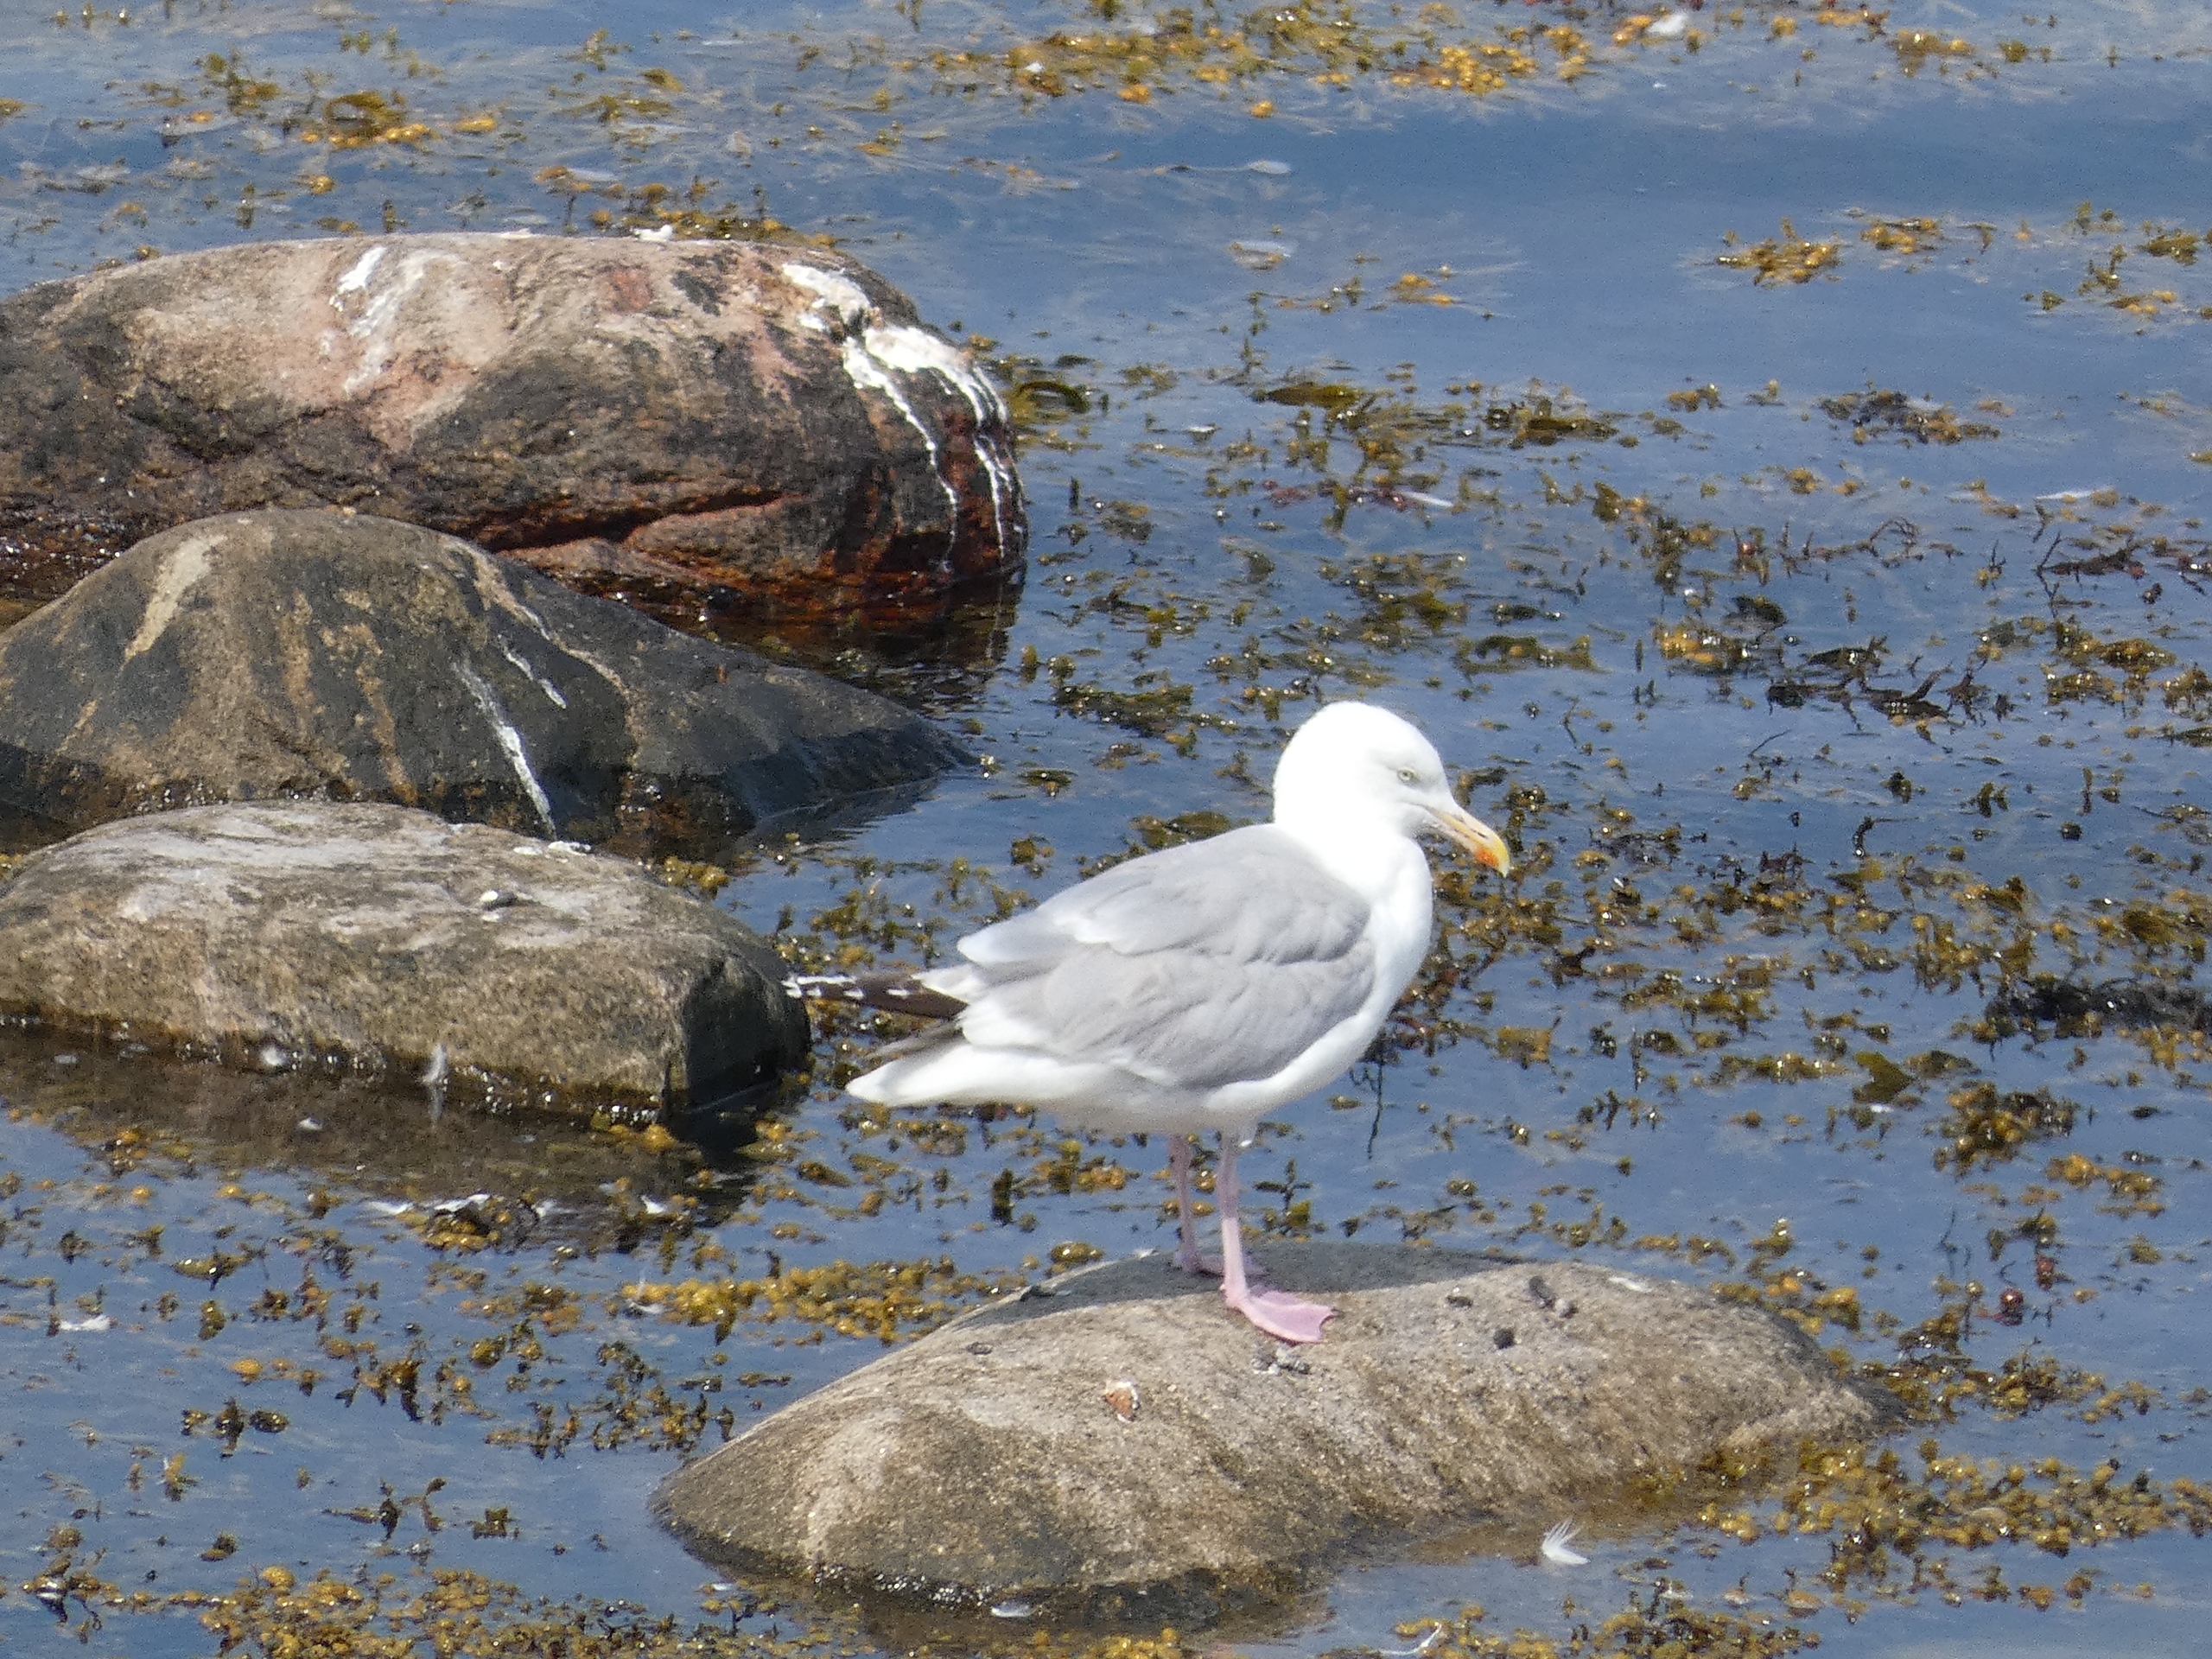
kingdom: Animalia
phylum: Chordata
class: Aves
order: Charadriiformes
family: Laridae
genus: Larus
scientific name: Larus argentatus
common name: Sølvmåge
